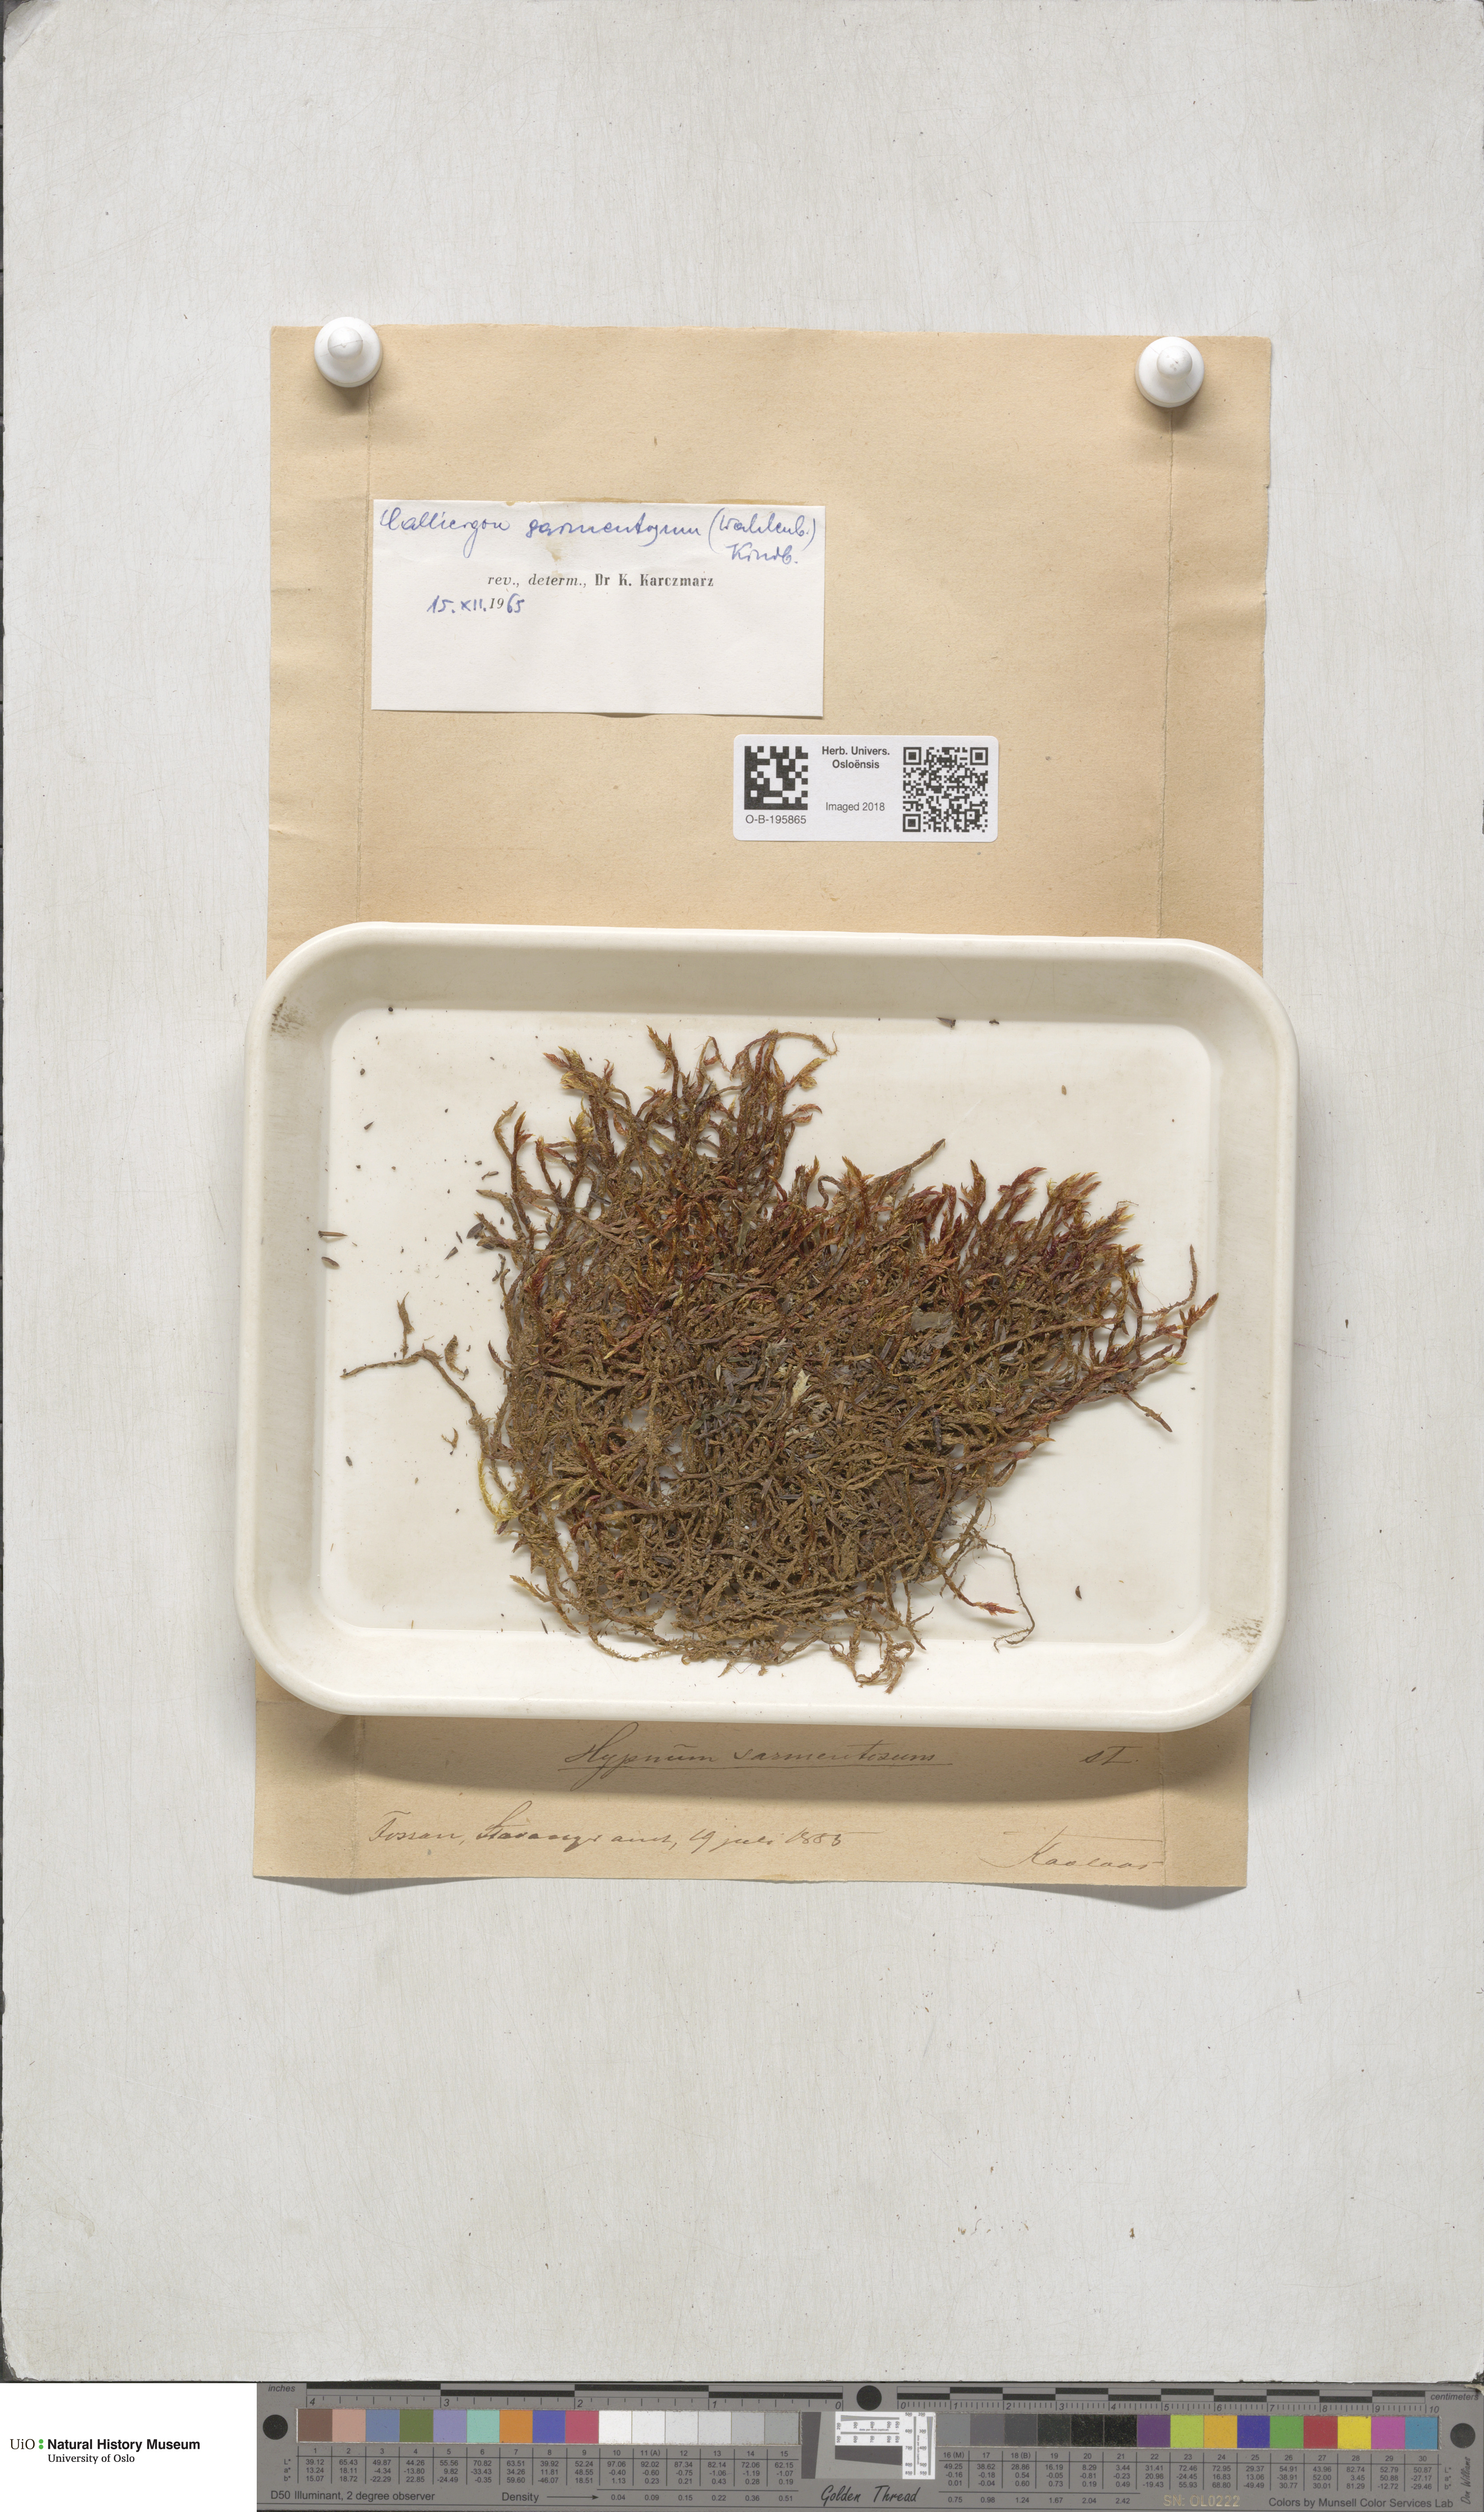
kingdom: Plantae
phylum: Bryophyta
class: Bryopsida
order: Hypnales
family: Calliergonaceae
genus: Warnstorfia
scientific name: Warnstorfia pseudostraminea
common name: Spring hook moss
